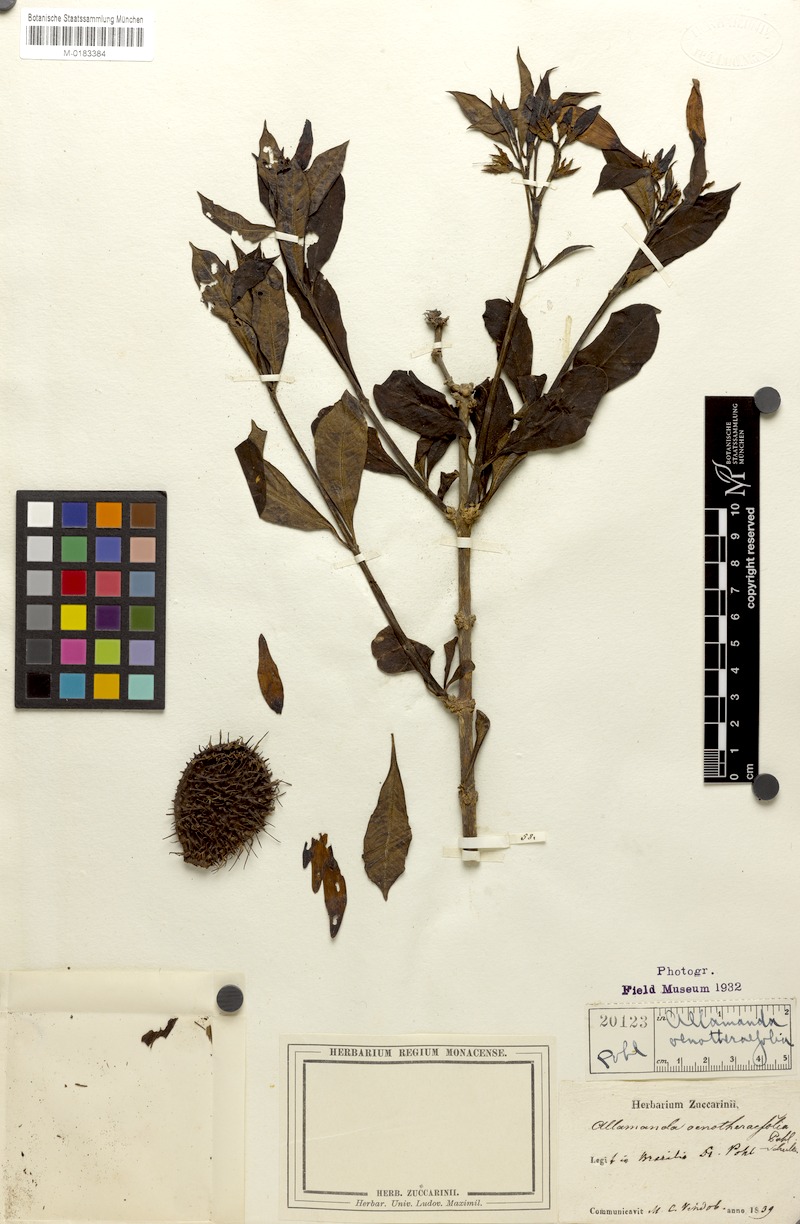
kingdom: Plantae
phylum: Tracheophyta
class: Magnoliopsida
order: Gentianales
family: Apocynaceae
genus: Allamanda
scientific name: Allamanda oenotherifolia
